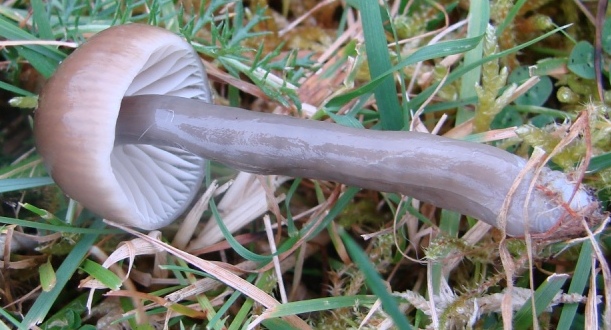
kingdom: Fungi
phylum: Basidiomycota
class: Agaricomycetes
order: Agaricales
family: Hygrophoraceae
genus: Gliophorus
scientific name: Gliophorus irrigatus
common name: slimet vokshat
